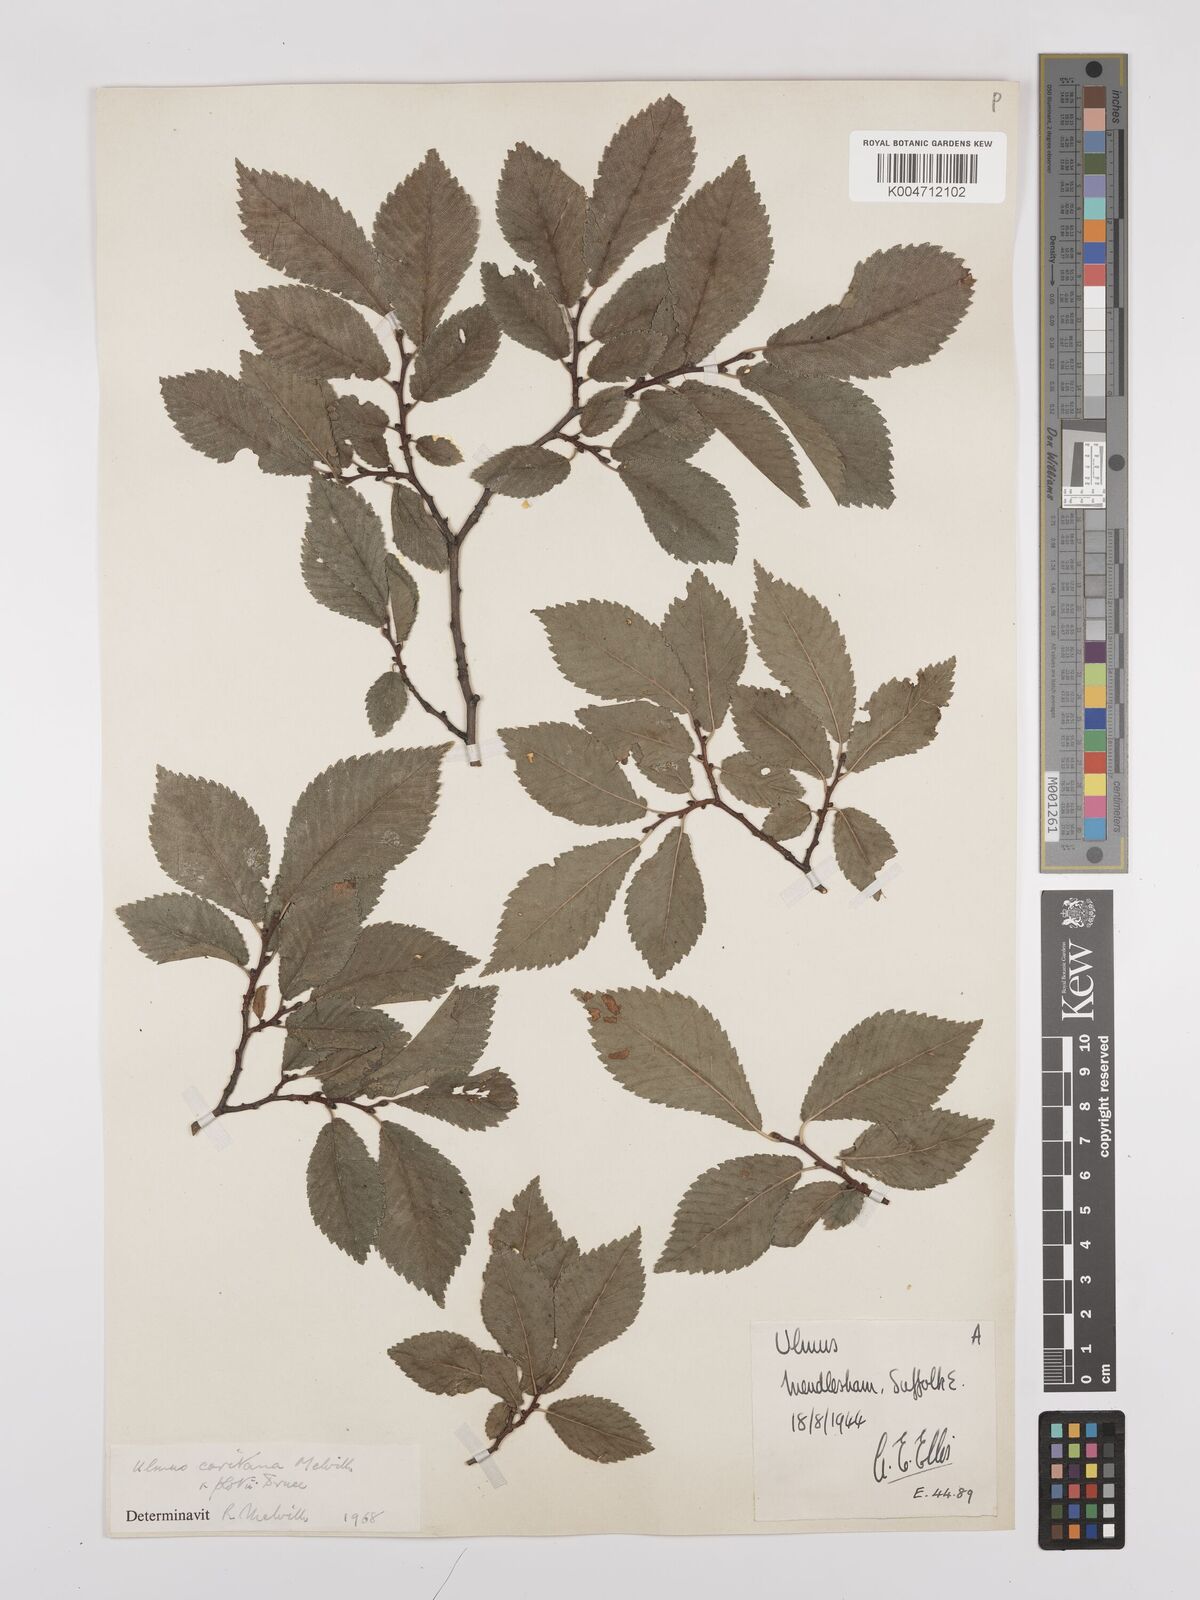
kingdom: Plantae
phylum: Tracheophyta
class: Magnoliopsida
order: Rosales
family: Ulmaceae
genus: Ulmus
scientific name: Ulmus minor
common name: Small-leaved elm
